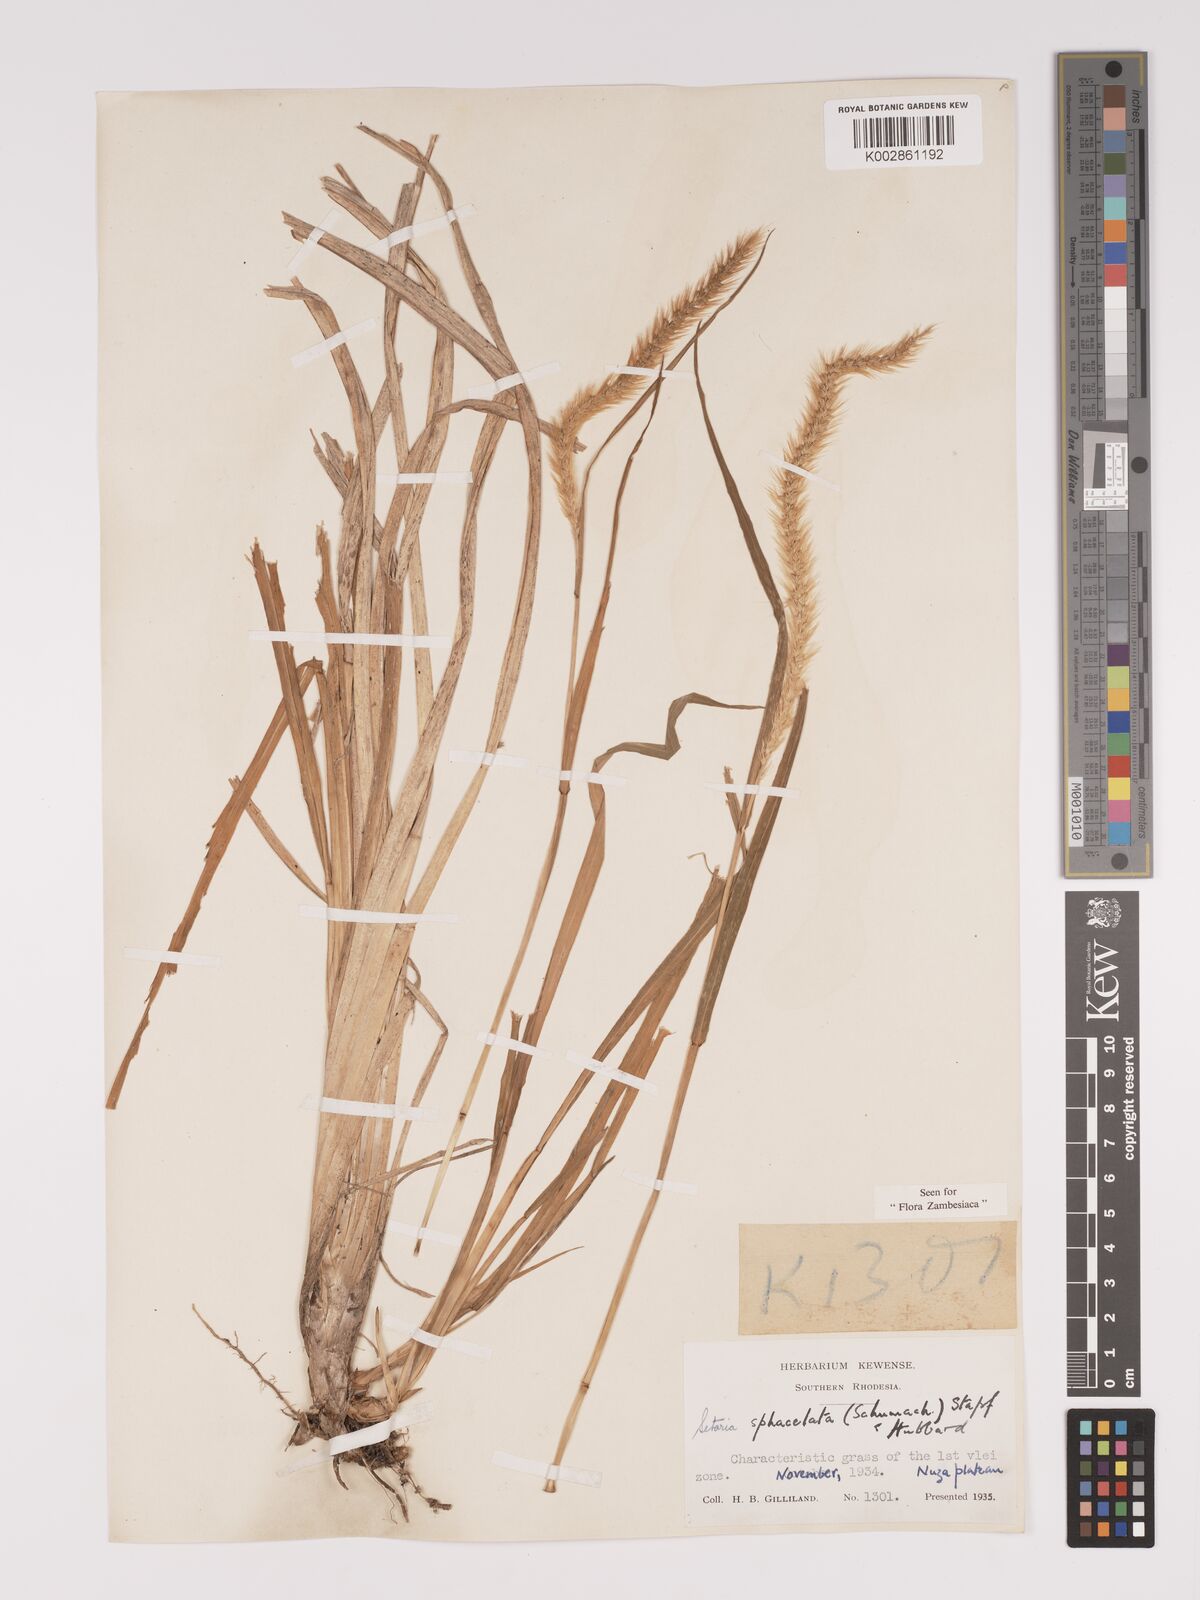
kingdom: Plantae
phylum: Tracheophyta
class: Liliopsida
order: Poales
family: Poaceae
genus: Setaria
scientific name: Setaria sphacelata
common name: African bristlegrass
